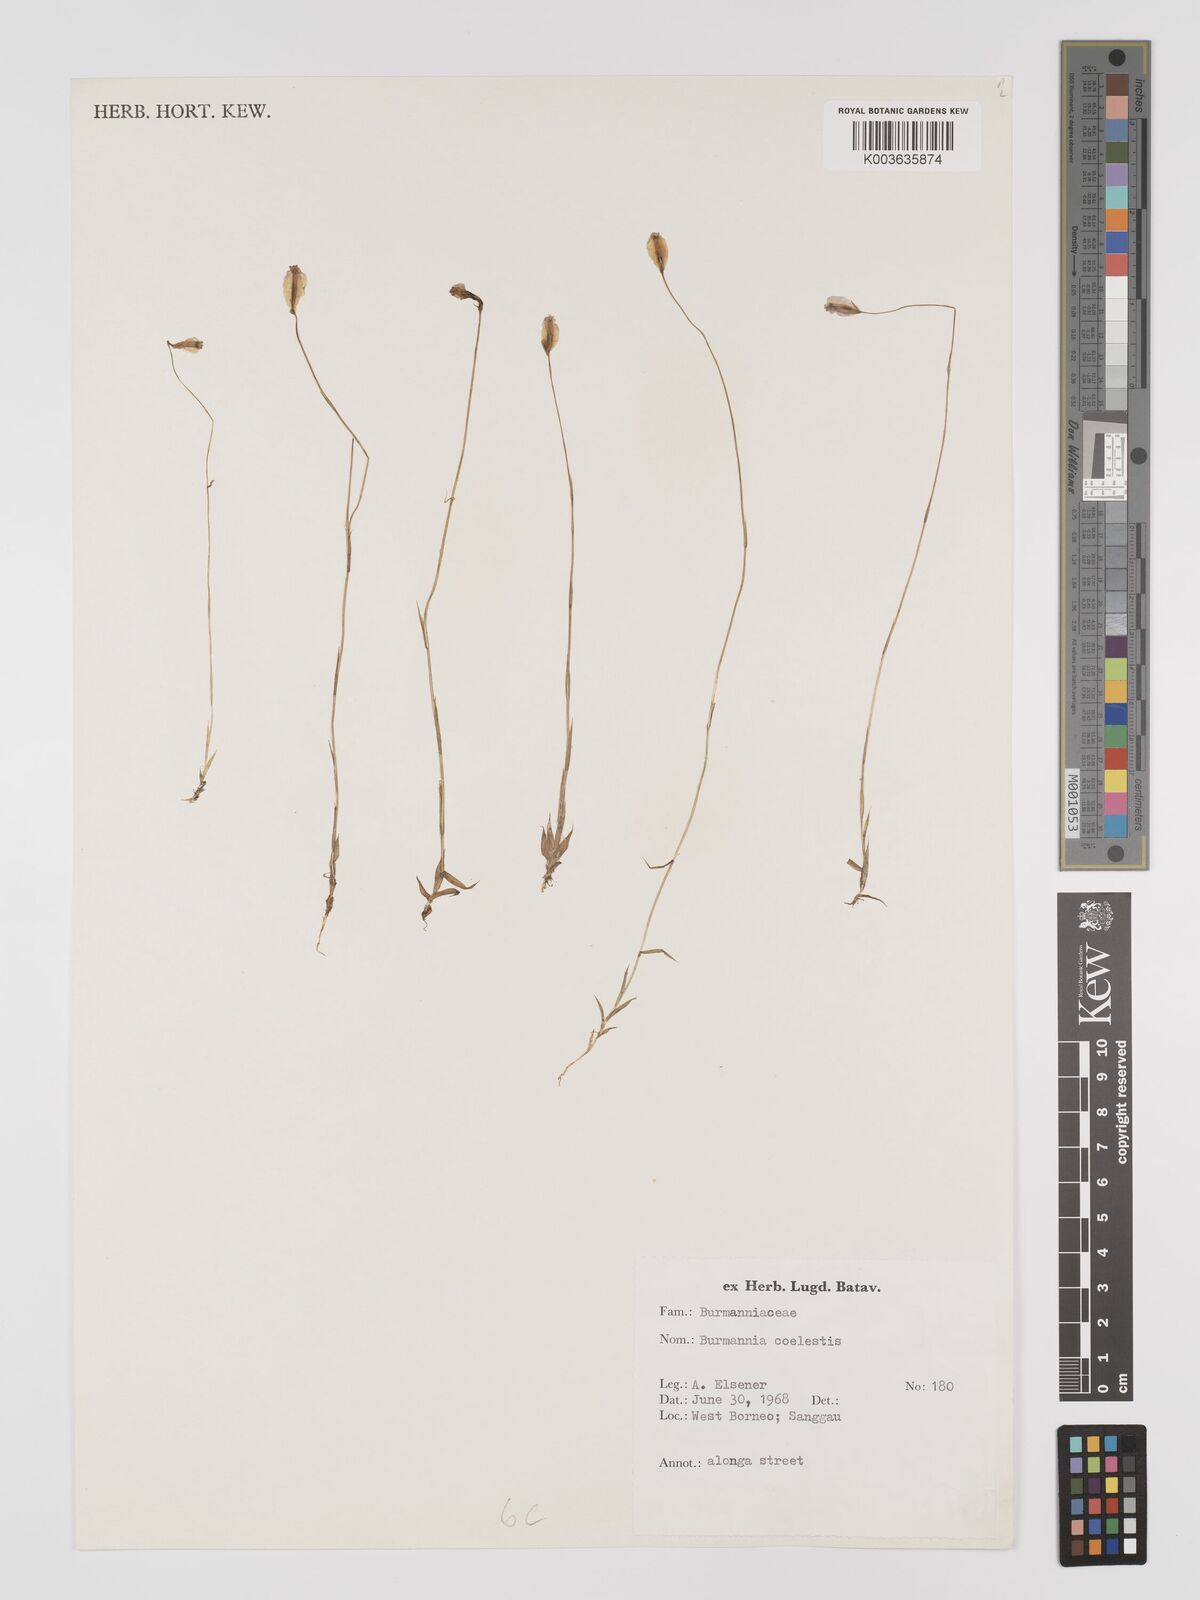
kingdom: Plantae
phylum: Tracheophyta
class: Liliopsida
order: Dioscoreales
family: Burmanniaceae
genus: Burmannia
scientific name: Burmannia coelestis
